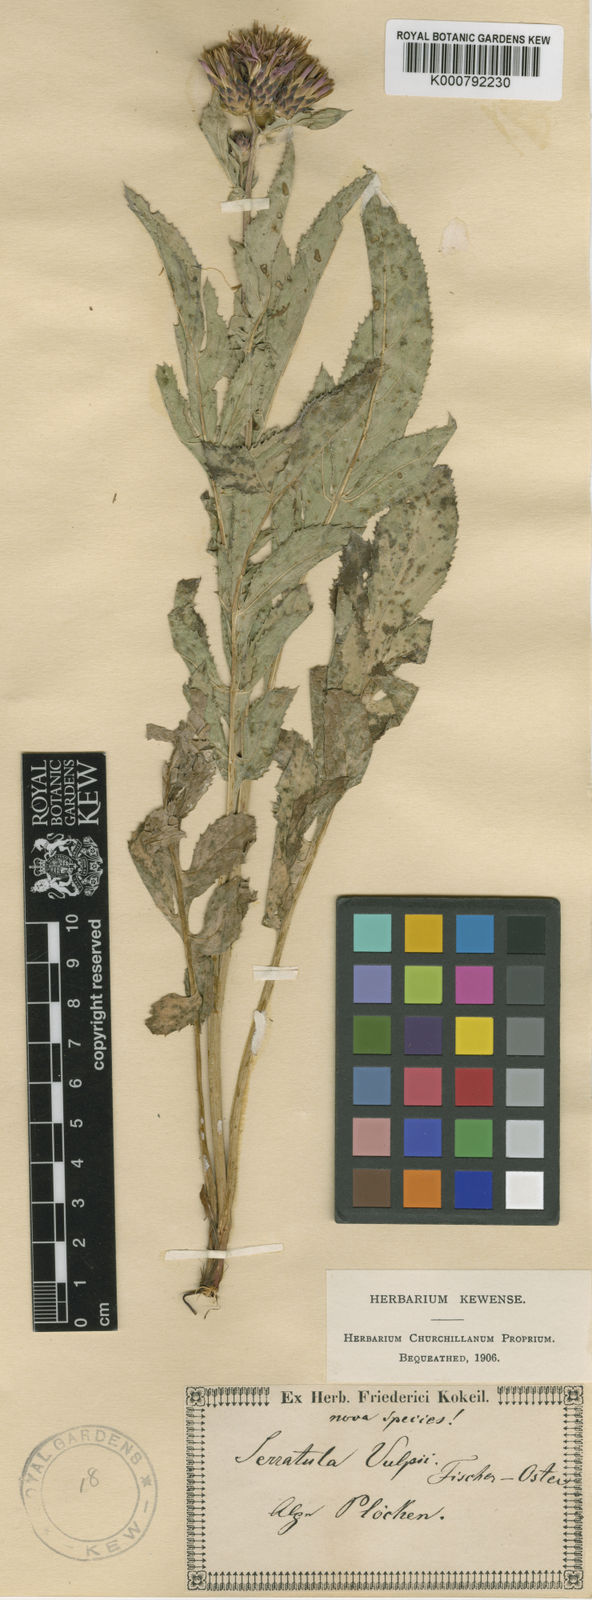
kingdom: Plantae
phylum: Tracheophyta
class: Magnoliopsida
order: Asterales
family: Asteraceae
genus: Serratula
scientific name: Serratula
